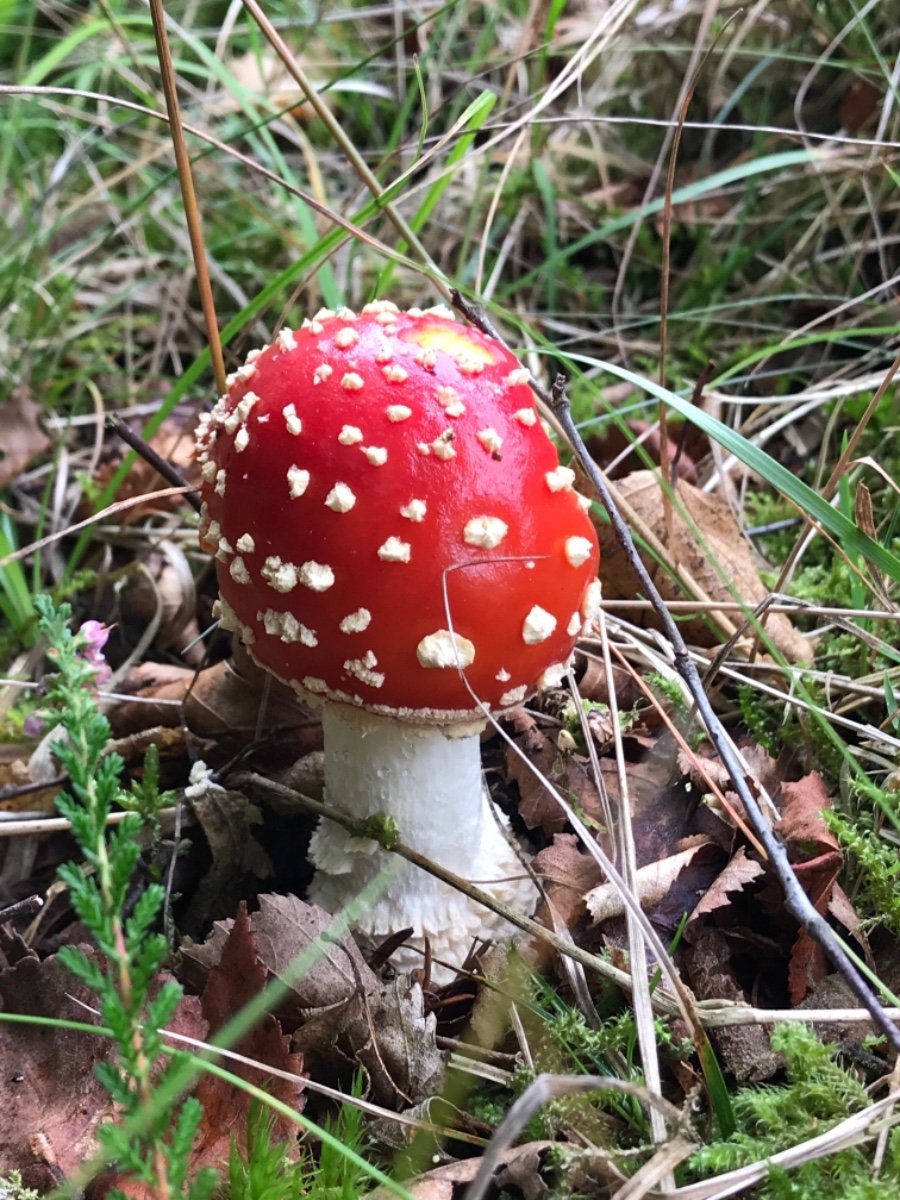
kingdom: Fungi
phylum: Basidiomycota
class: Agaricomycetes
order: Agaricales
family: Amanitaceae
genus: Amanita
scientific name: Amanita muscaria
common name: rød fluesvamp
